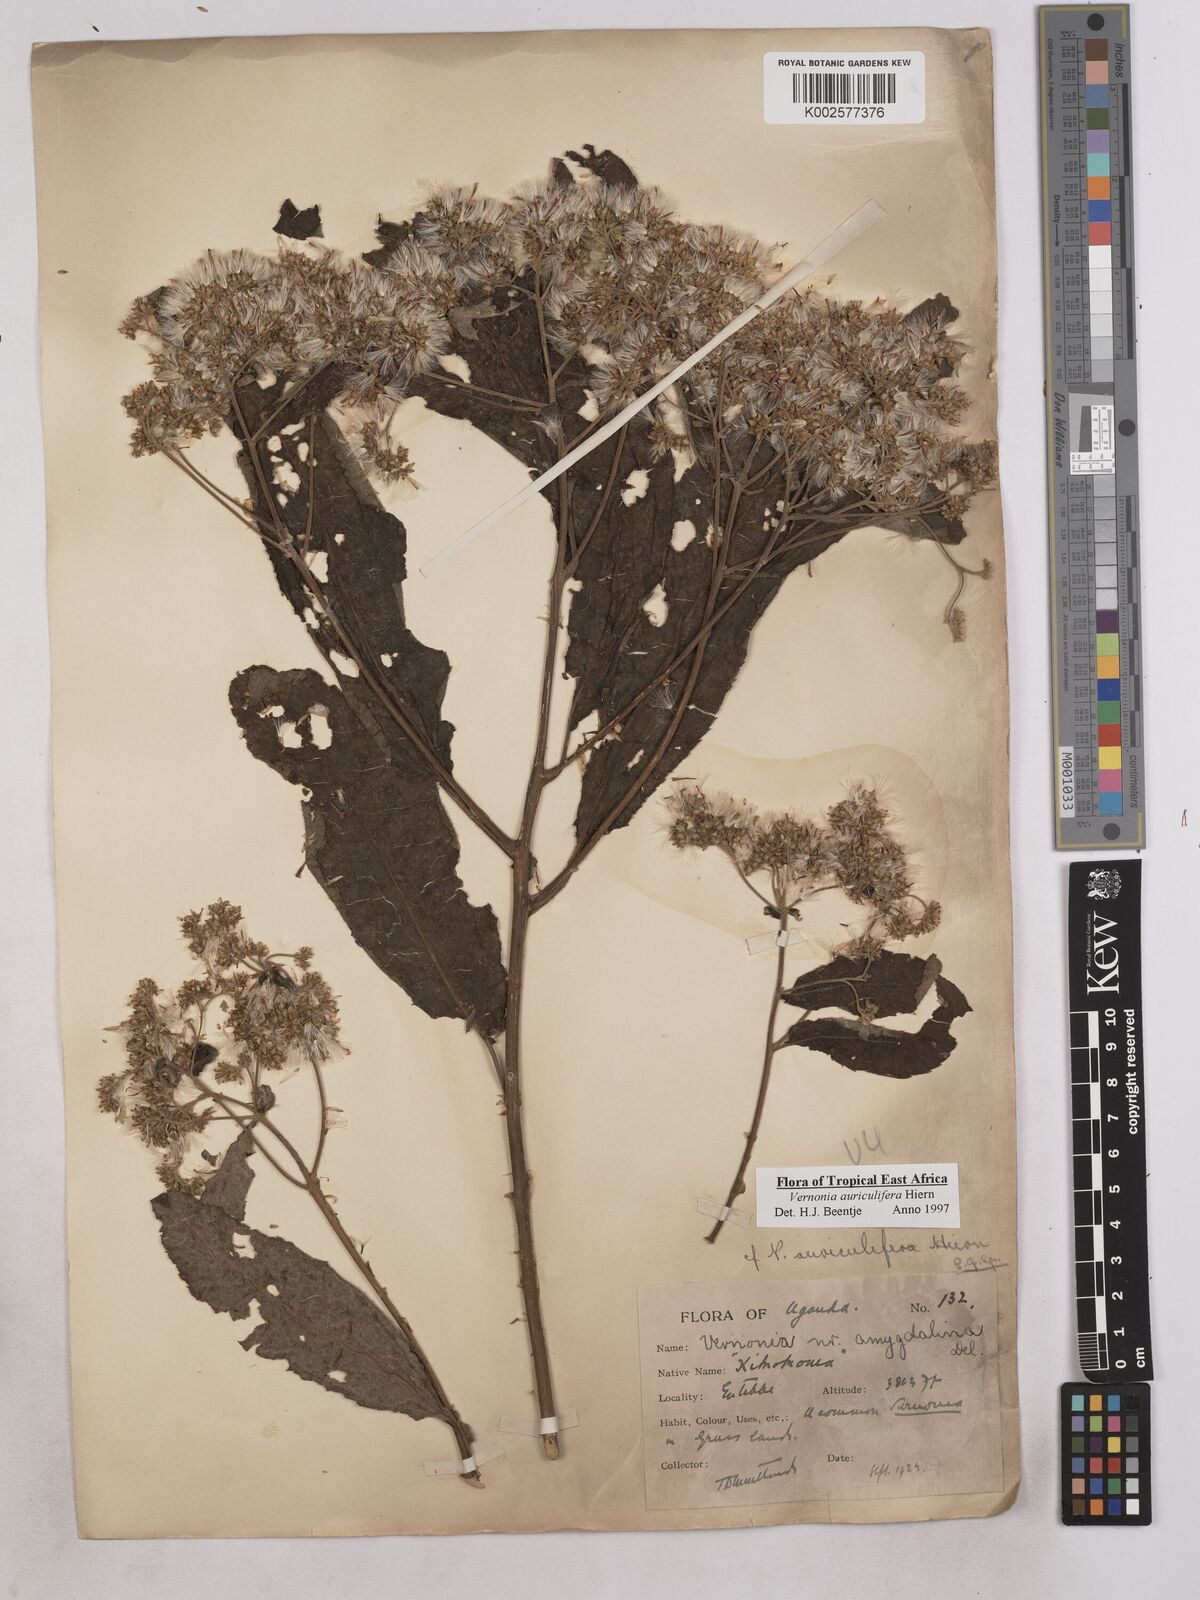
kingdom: Plantae
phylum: Tracheophyta
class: Magnoliopsida
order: Asterales
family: Asteraceae
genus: Gymnanthemum
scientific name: Gymnanthemum auriculiferum
